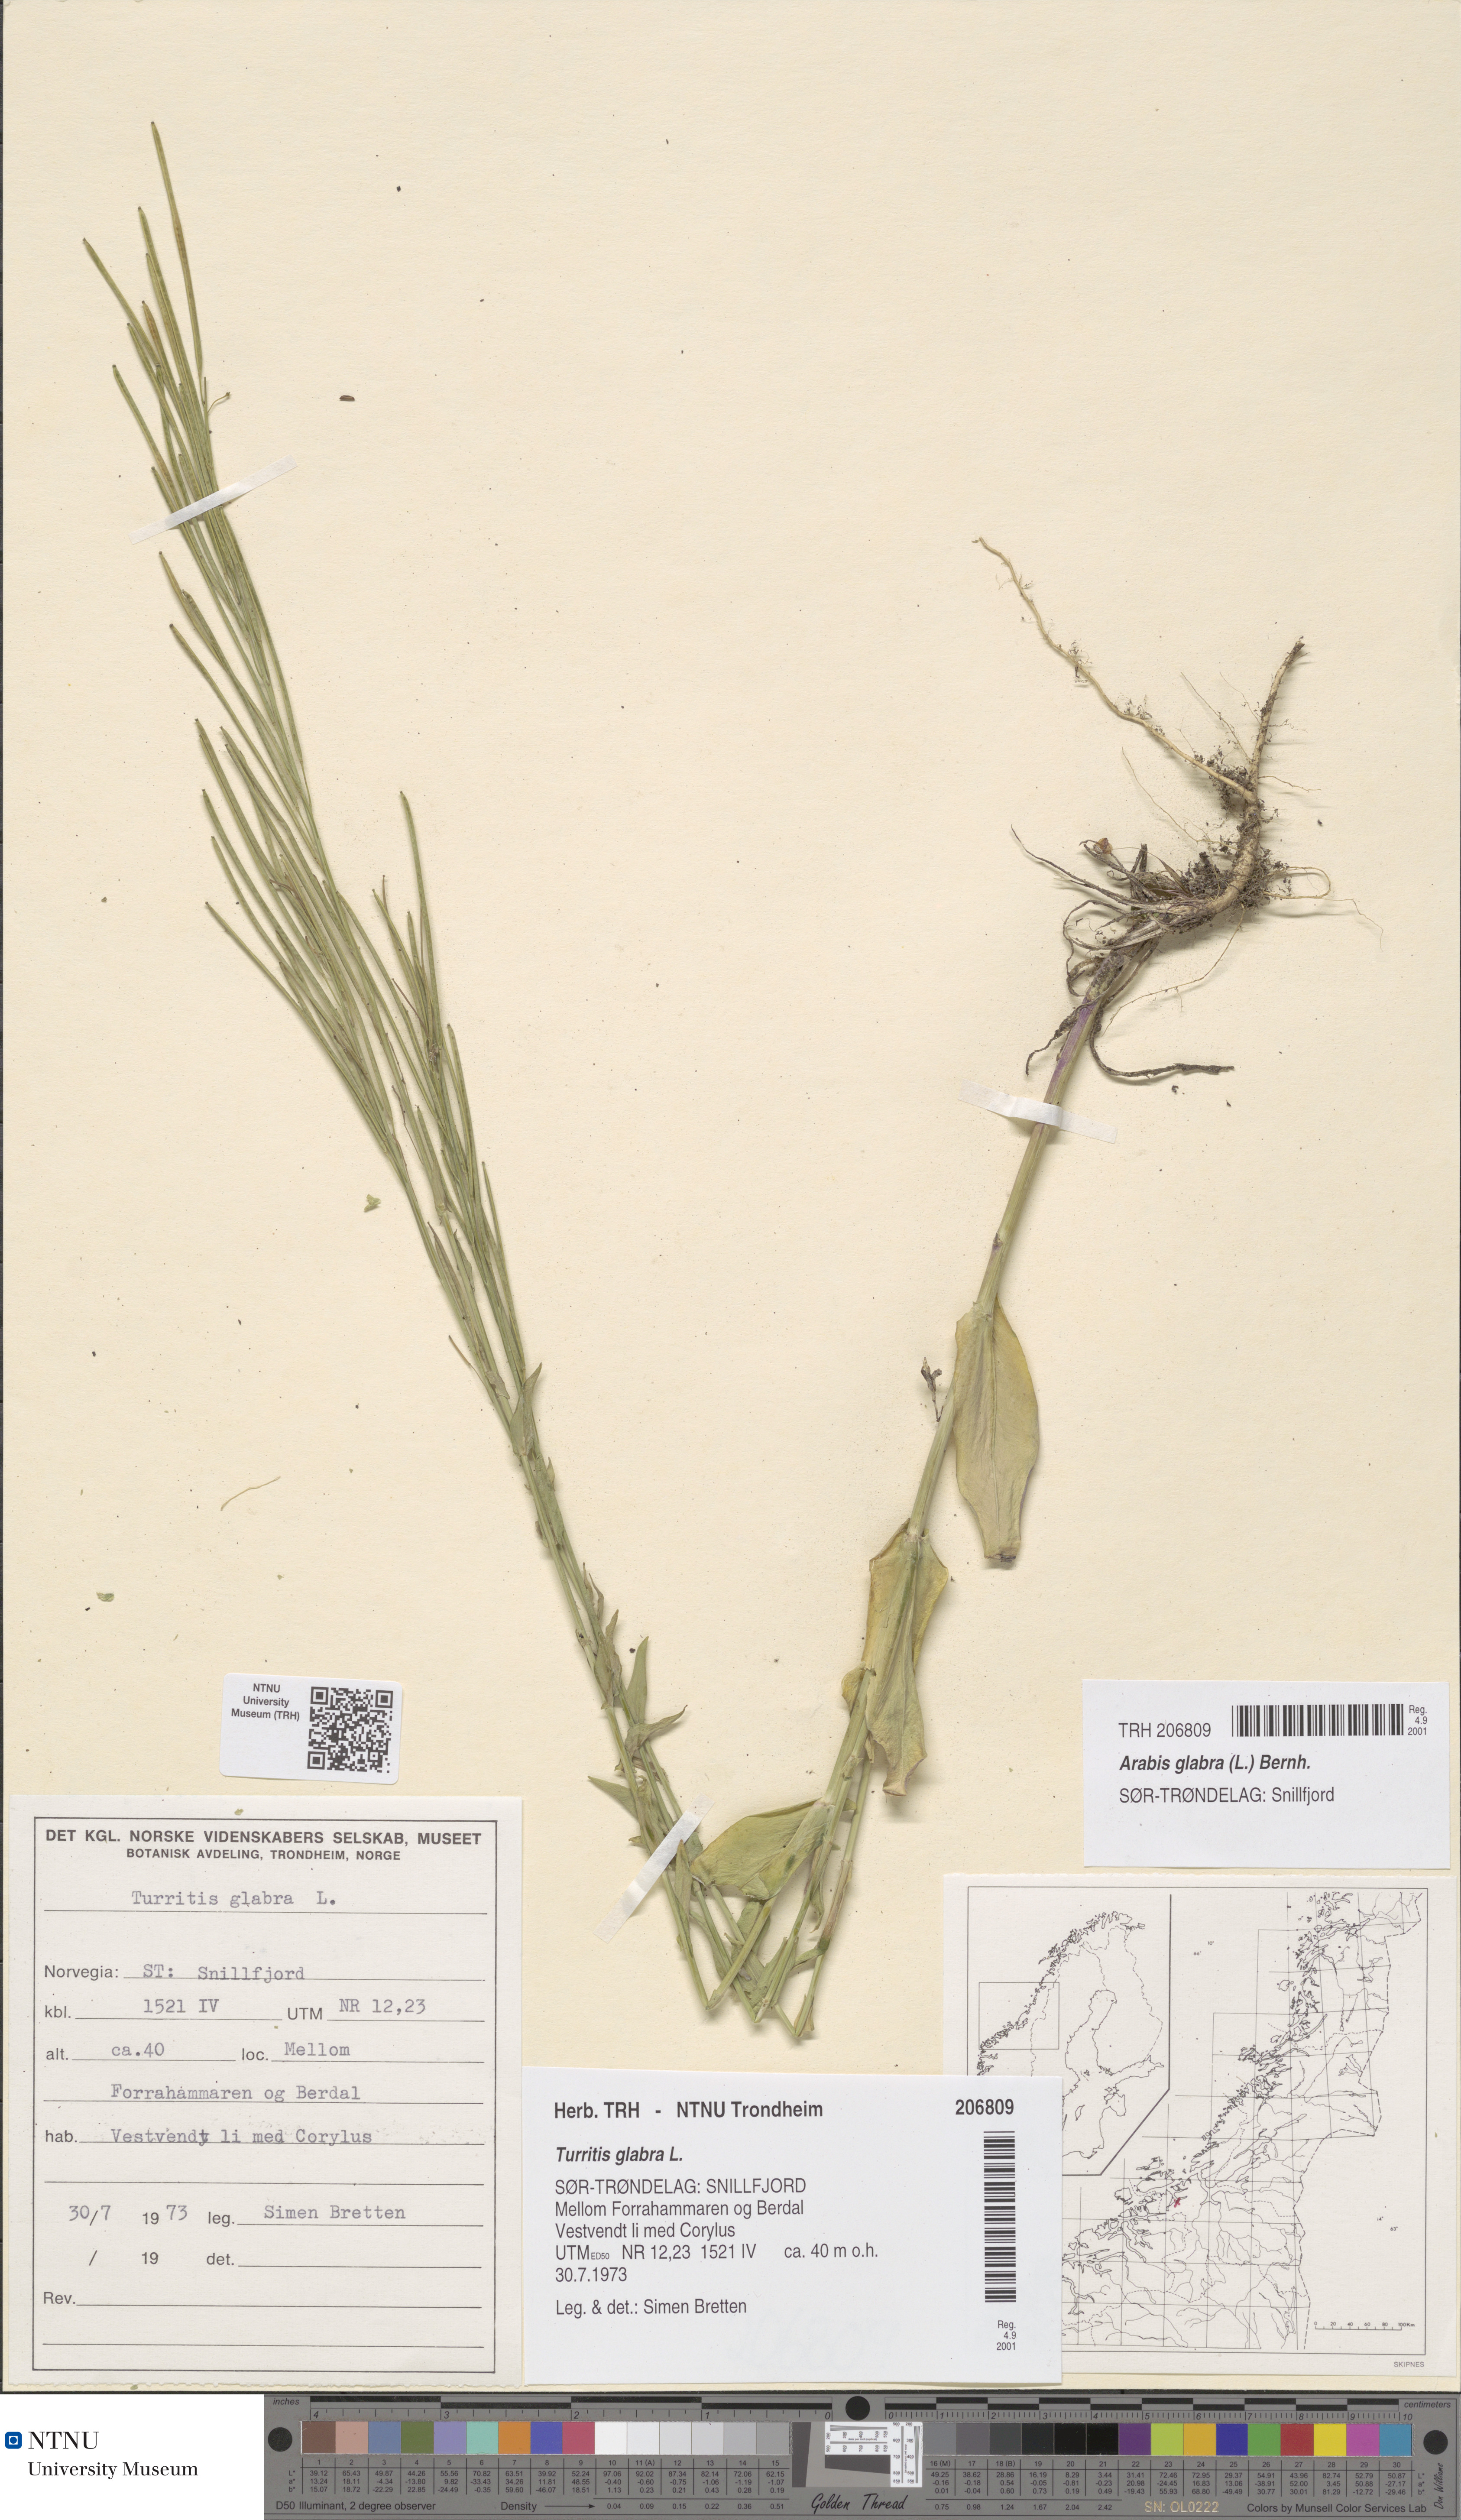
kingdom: Plantae
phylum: Tracheophyta
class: Magnoliopsida
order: Brassicales
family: Brassicaceae
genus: Turritis
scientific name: Turritis glabra
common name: Tower rockcress
